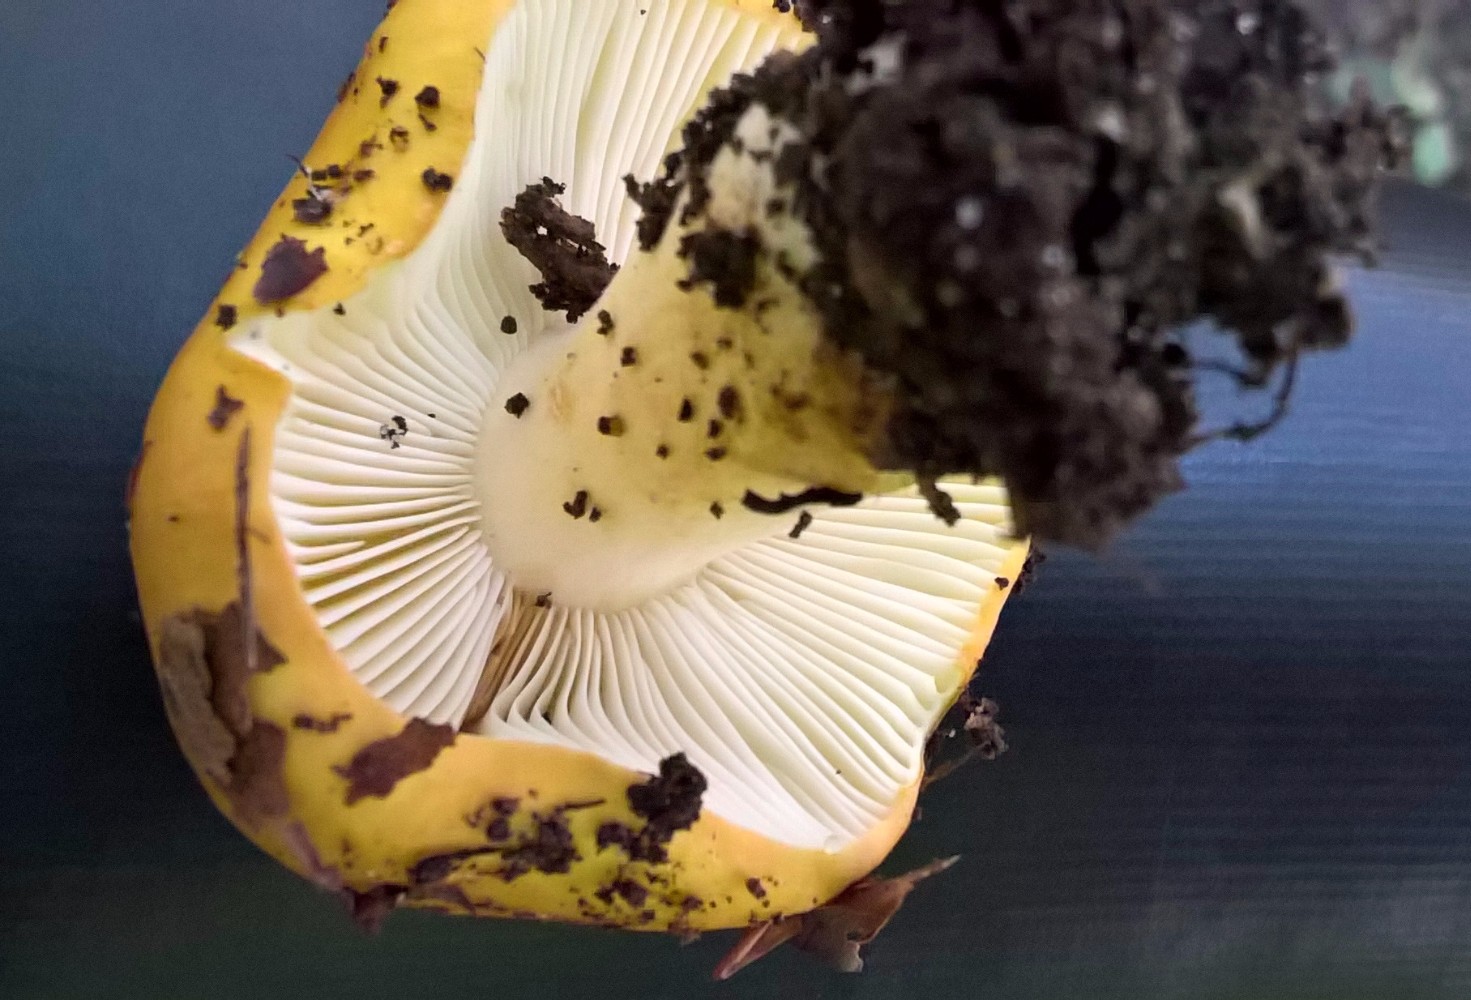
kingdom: Fungi
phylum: Basidiomycota
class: Agaricomycetes
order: Russulales
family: Russulaceae
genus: Russula
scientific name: Russula ochroleuca
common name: okkergul skørhat
